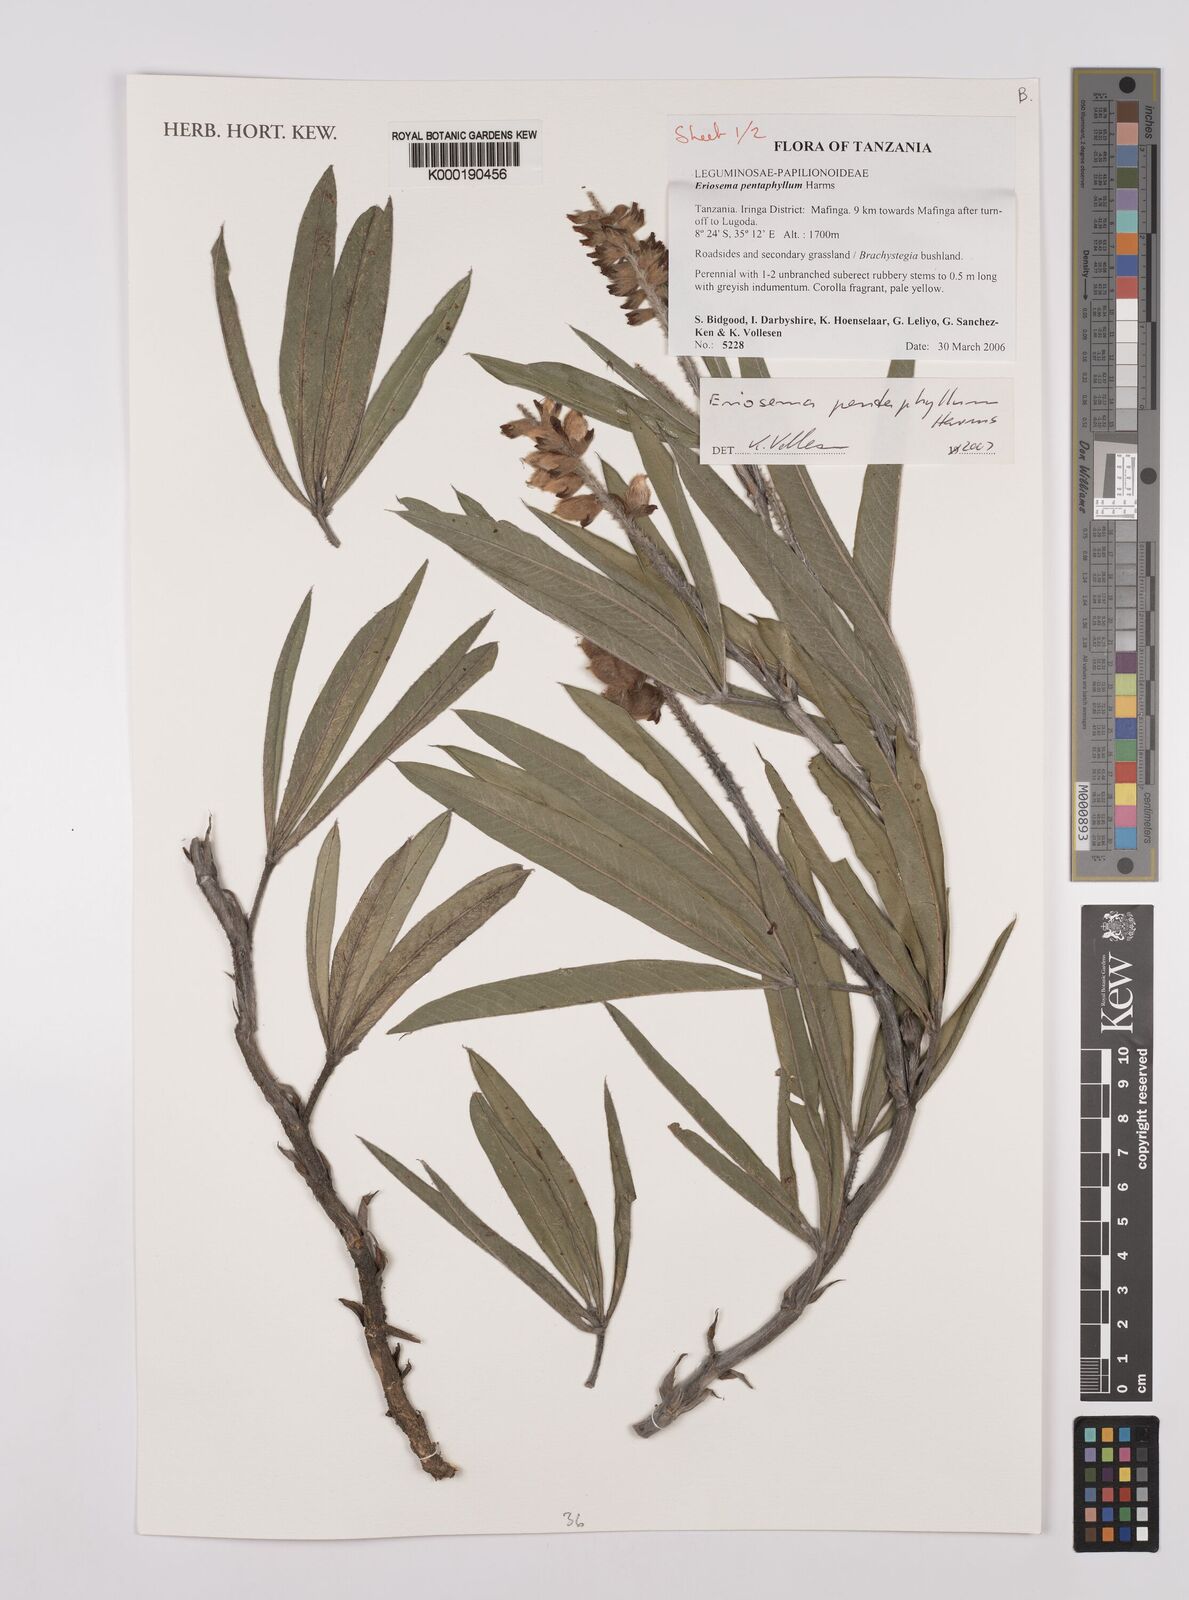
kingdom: Plantae
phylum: Tracheophyta
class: Magnoliopsida
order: Fabales
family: Fabaceae
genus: Eriosema
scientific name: Eriosema pentaphyllum
